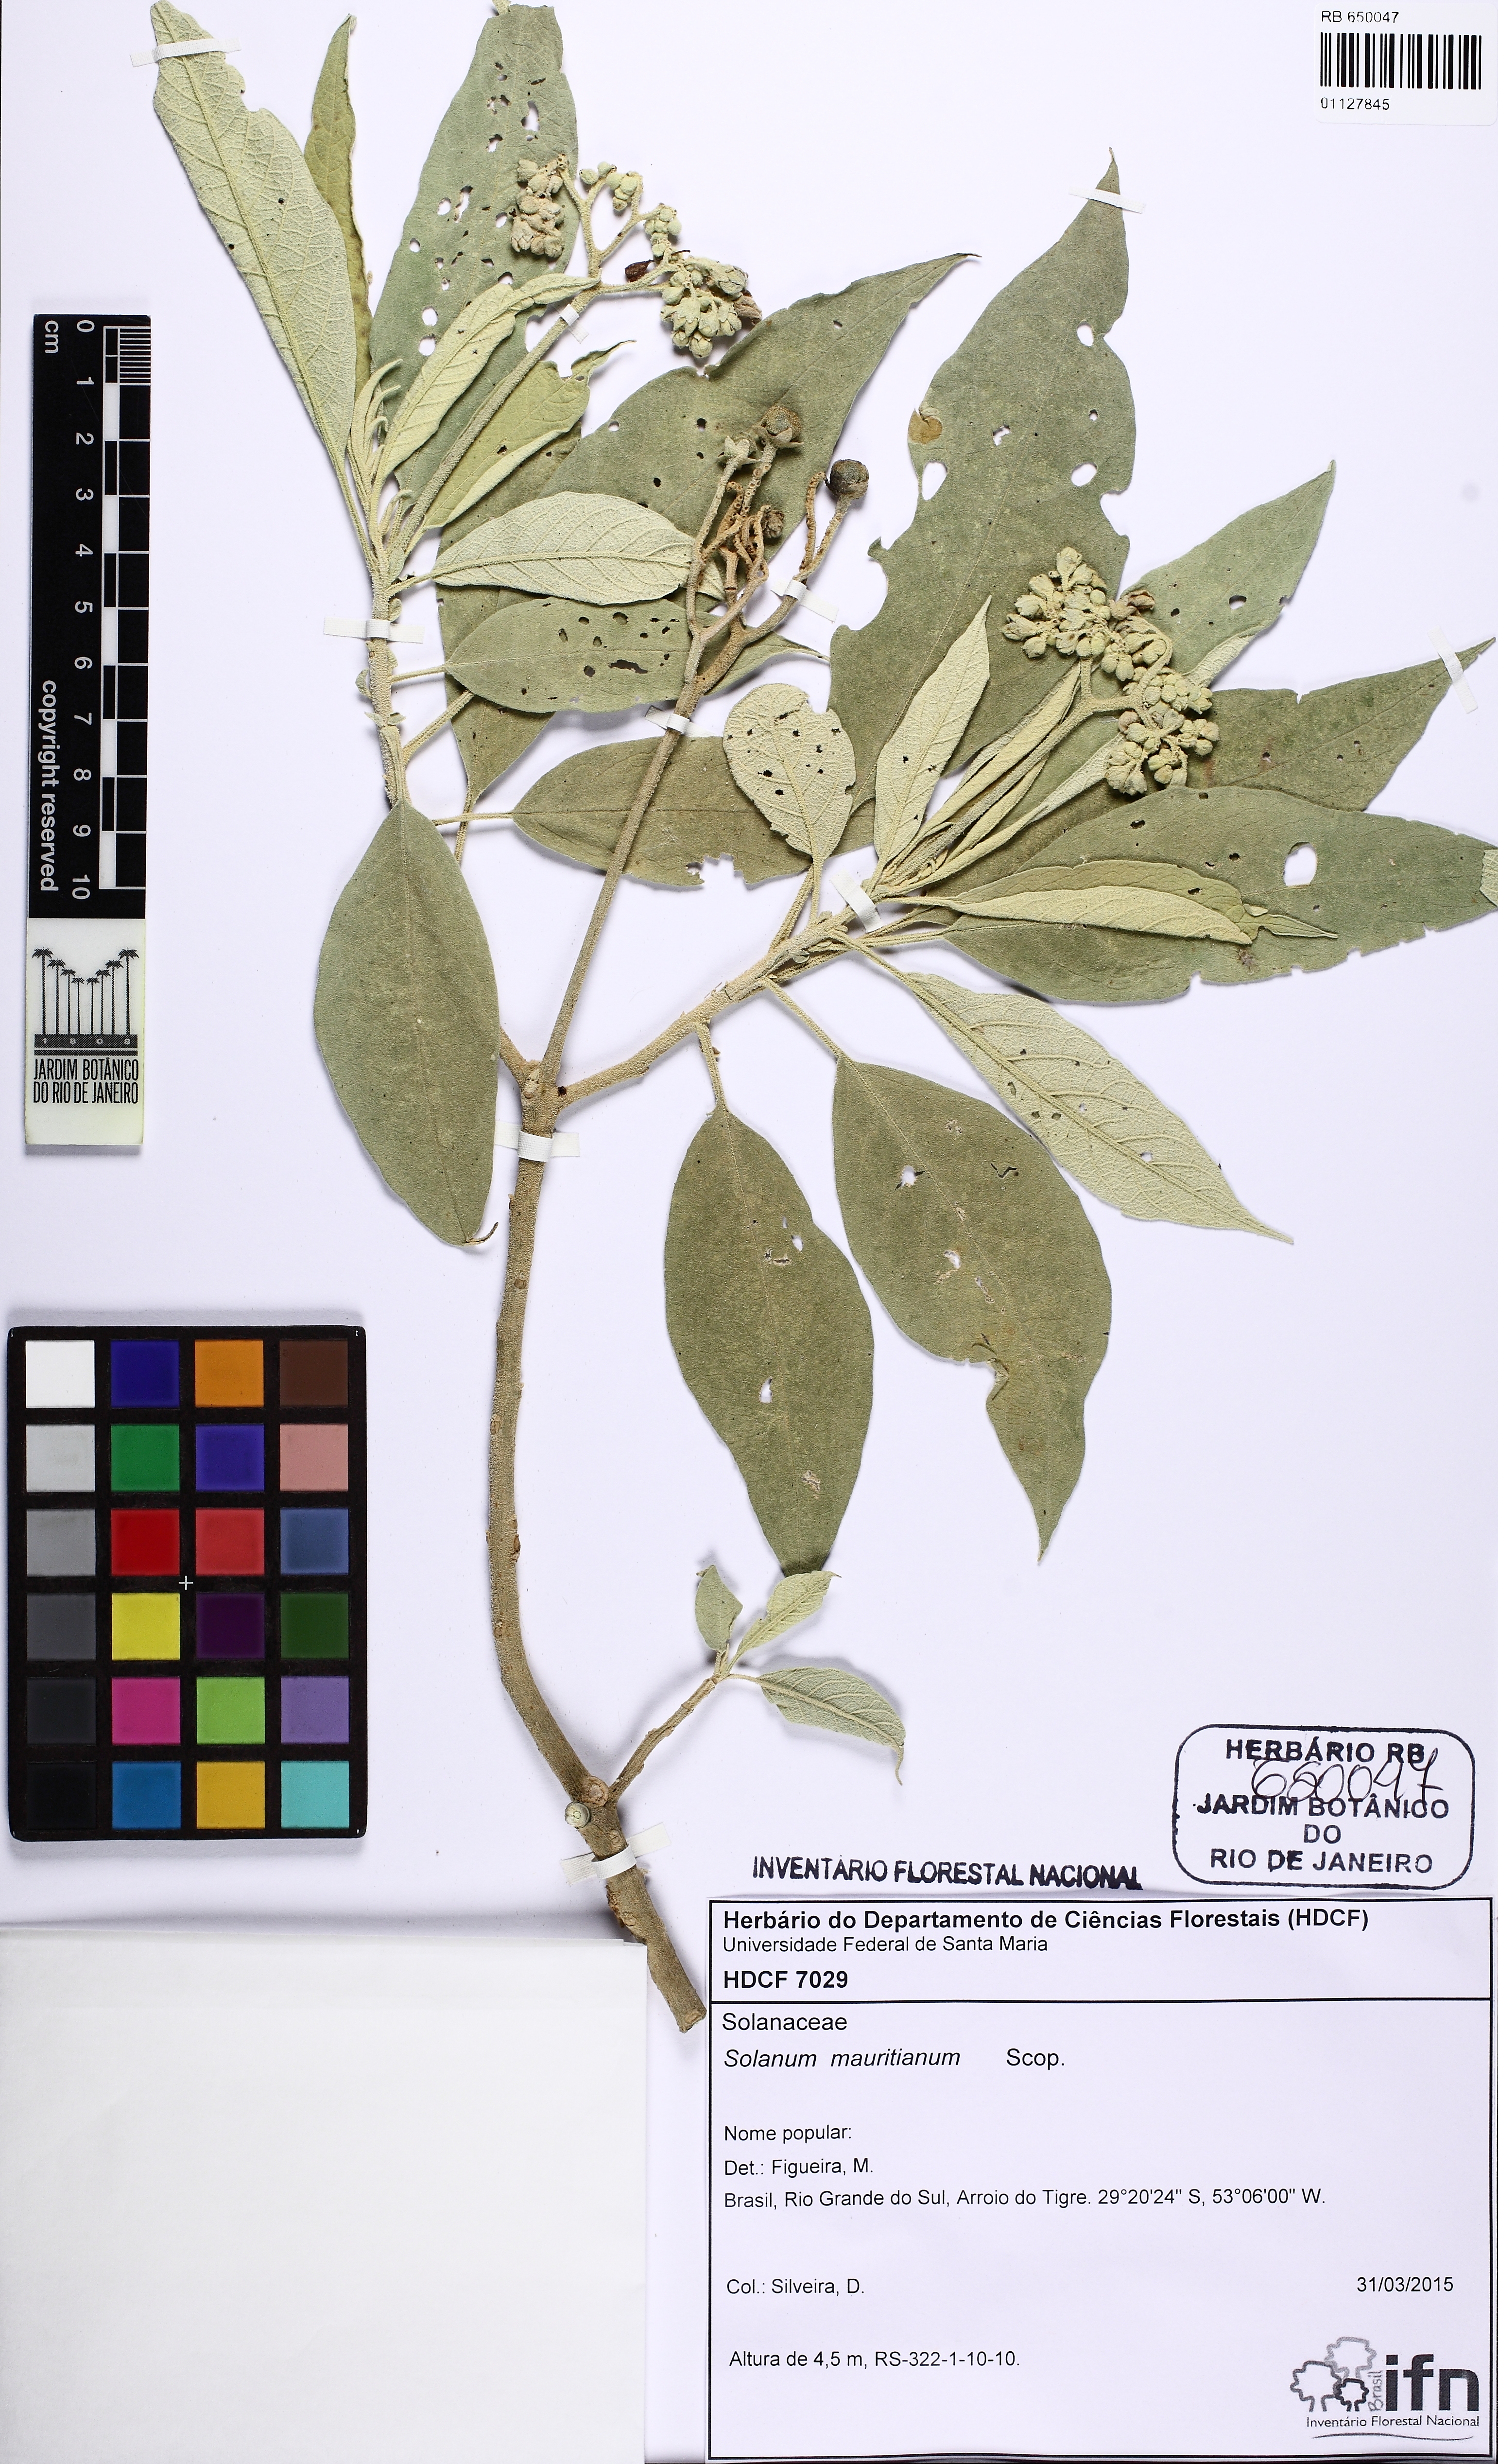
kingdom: Plantae
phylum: Tracheophyta
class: Magnoliopsida
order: Solanales
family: Solanaceae
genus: Solanum
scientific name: Solanum mauritianum
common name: Earleaf nightshade
